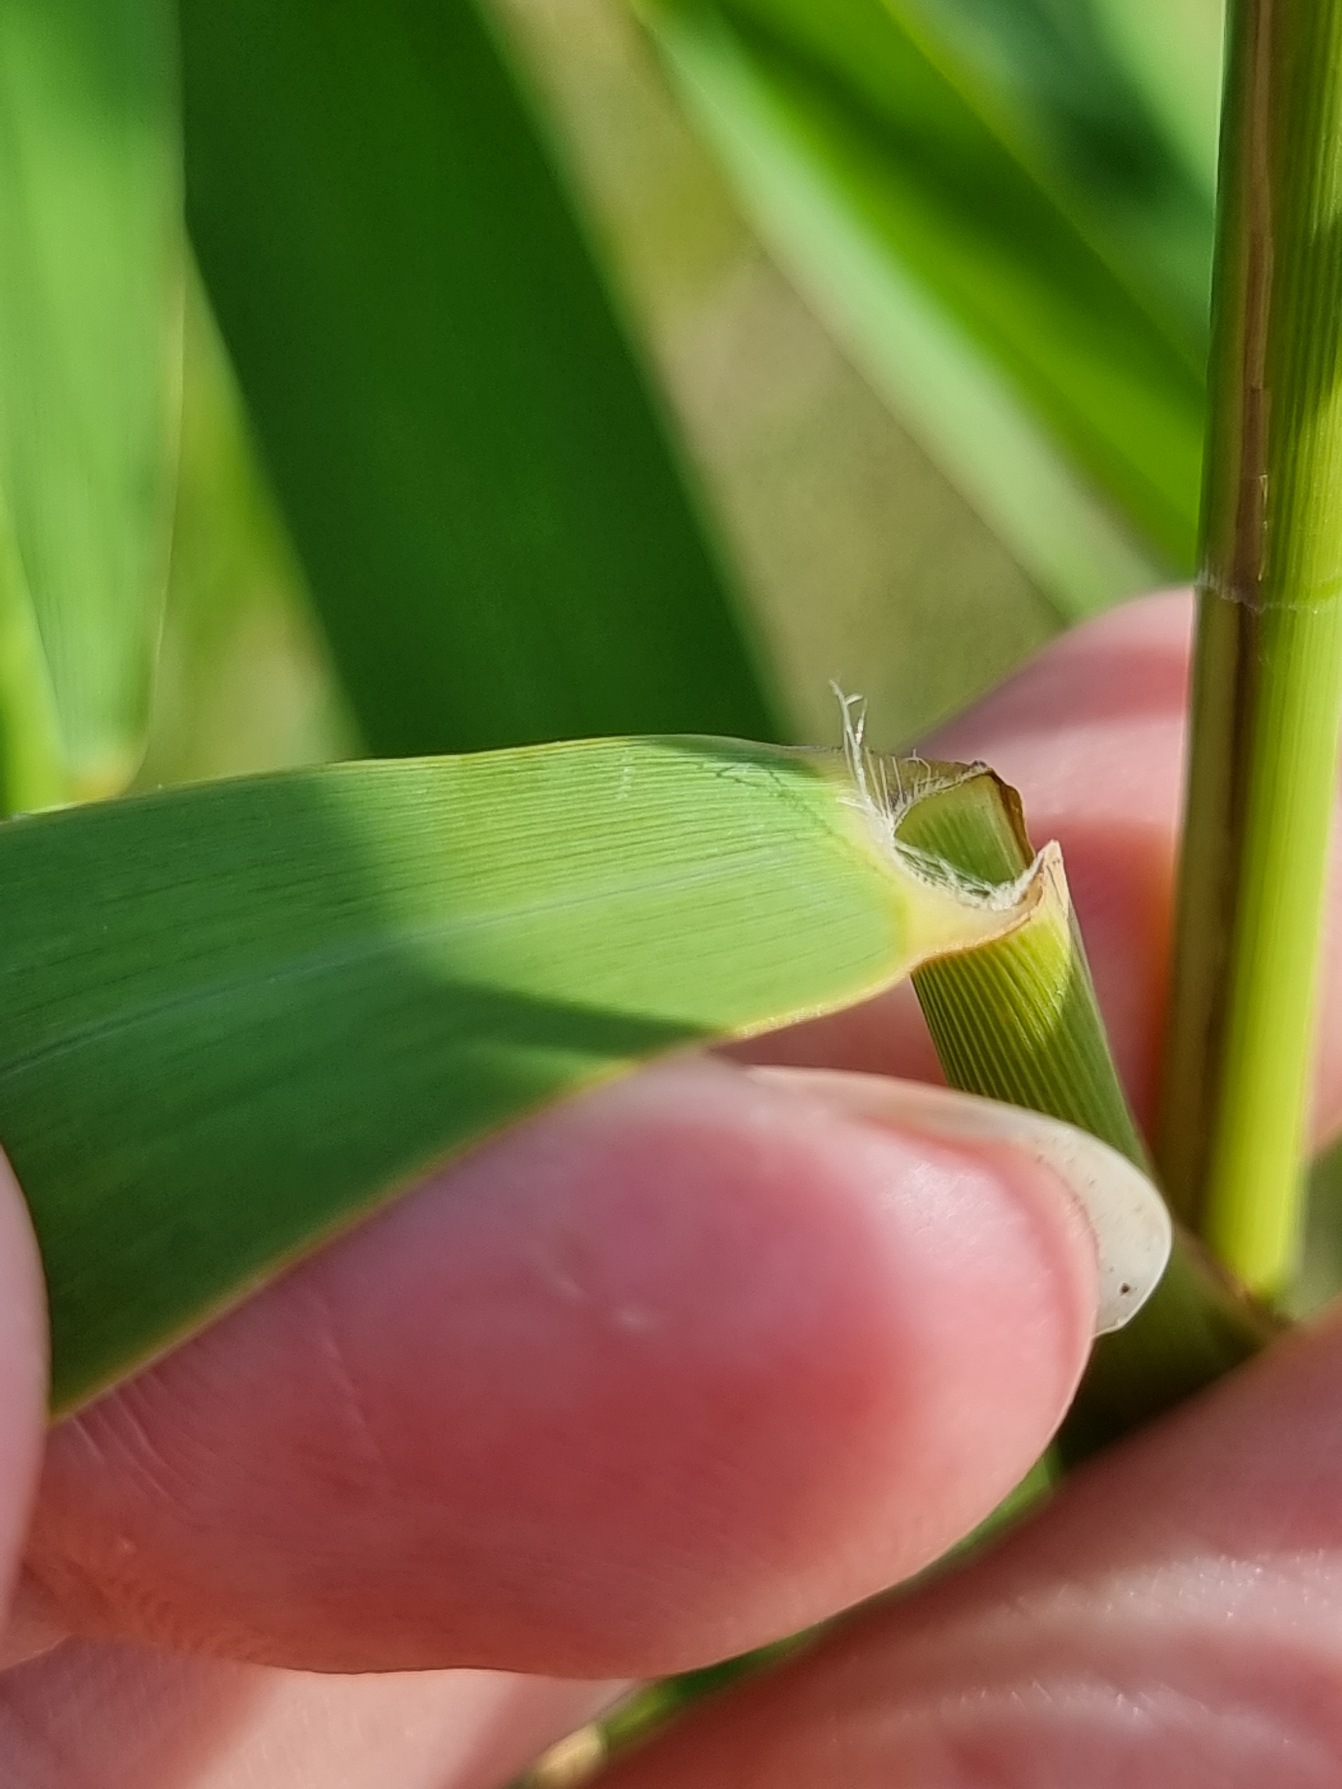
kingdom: Plantae
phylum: Tracheophyta
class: Liliopsida
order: Poales
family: Poaceae
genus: Phragmites
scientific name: Phragmites australis
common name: Tagrør
